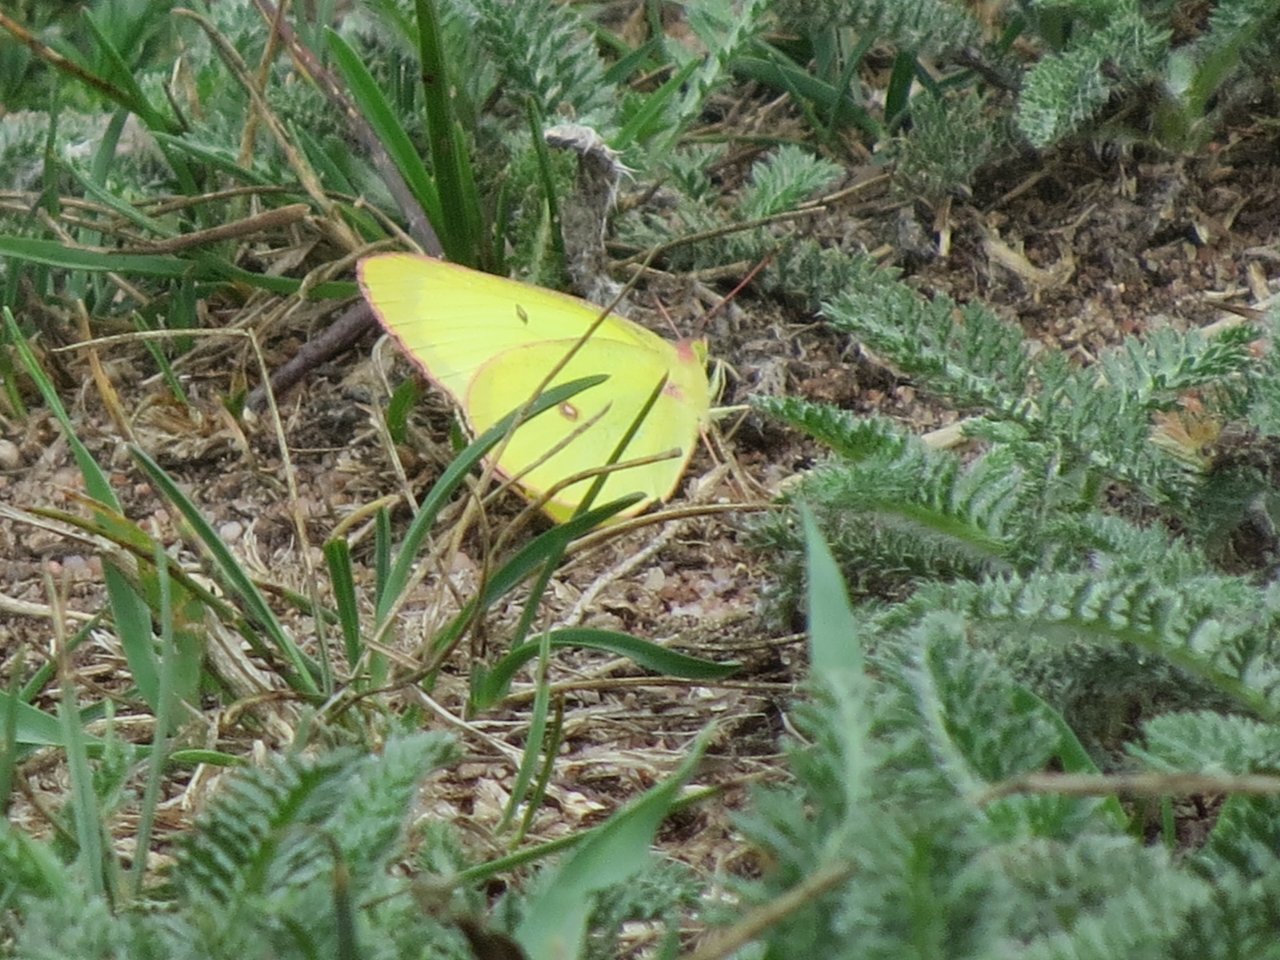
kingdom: Animalia
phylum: Arthropoda
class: Insecta
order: Lepidoptera
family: Pieridae
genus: Colias
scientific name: Colias interior
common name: Pink-edged Sulphur
